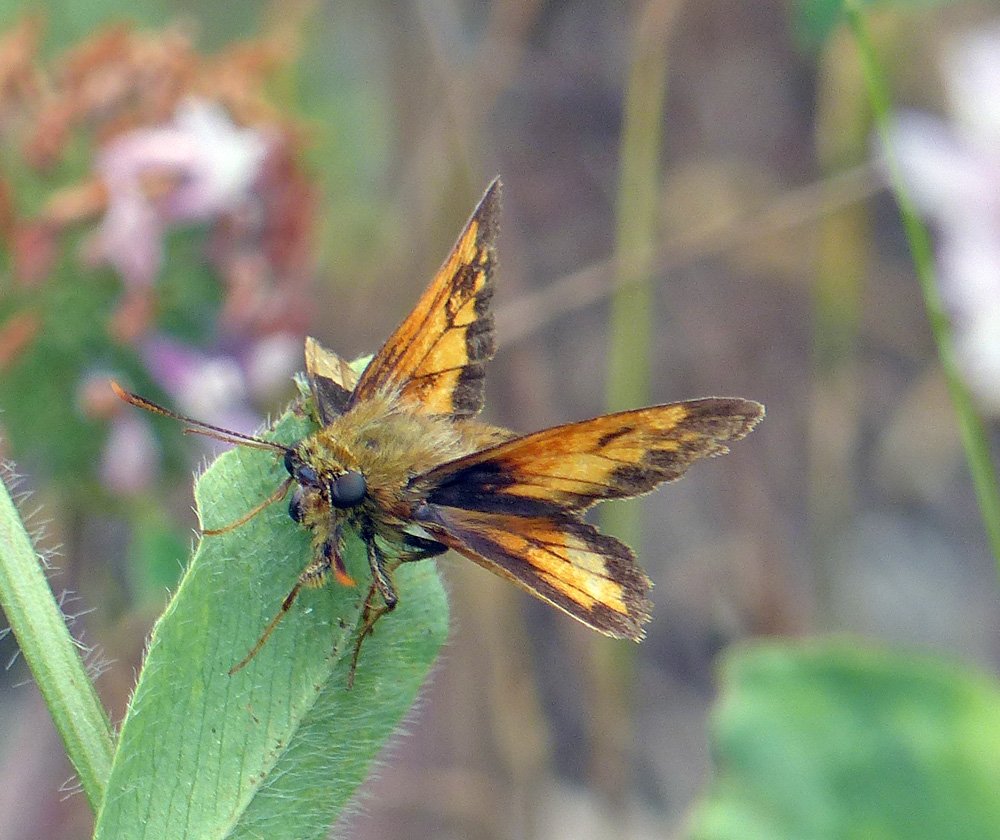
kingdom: Animalia
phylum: Arthropoda
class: Insecta
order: Lepidoptera
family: Hesperiidae
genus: Lon
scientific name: Lon hobomok
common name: Hobomok Skipper
